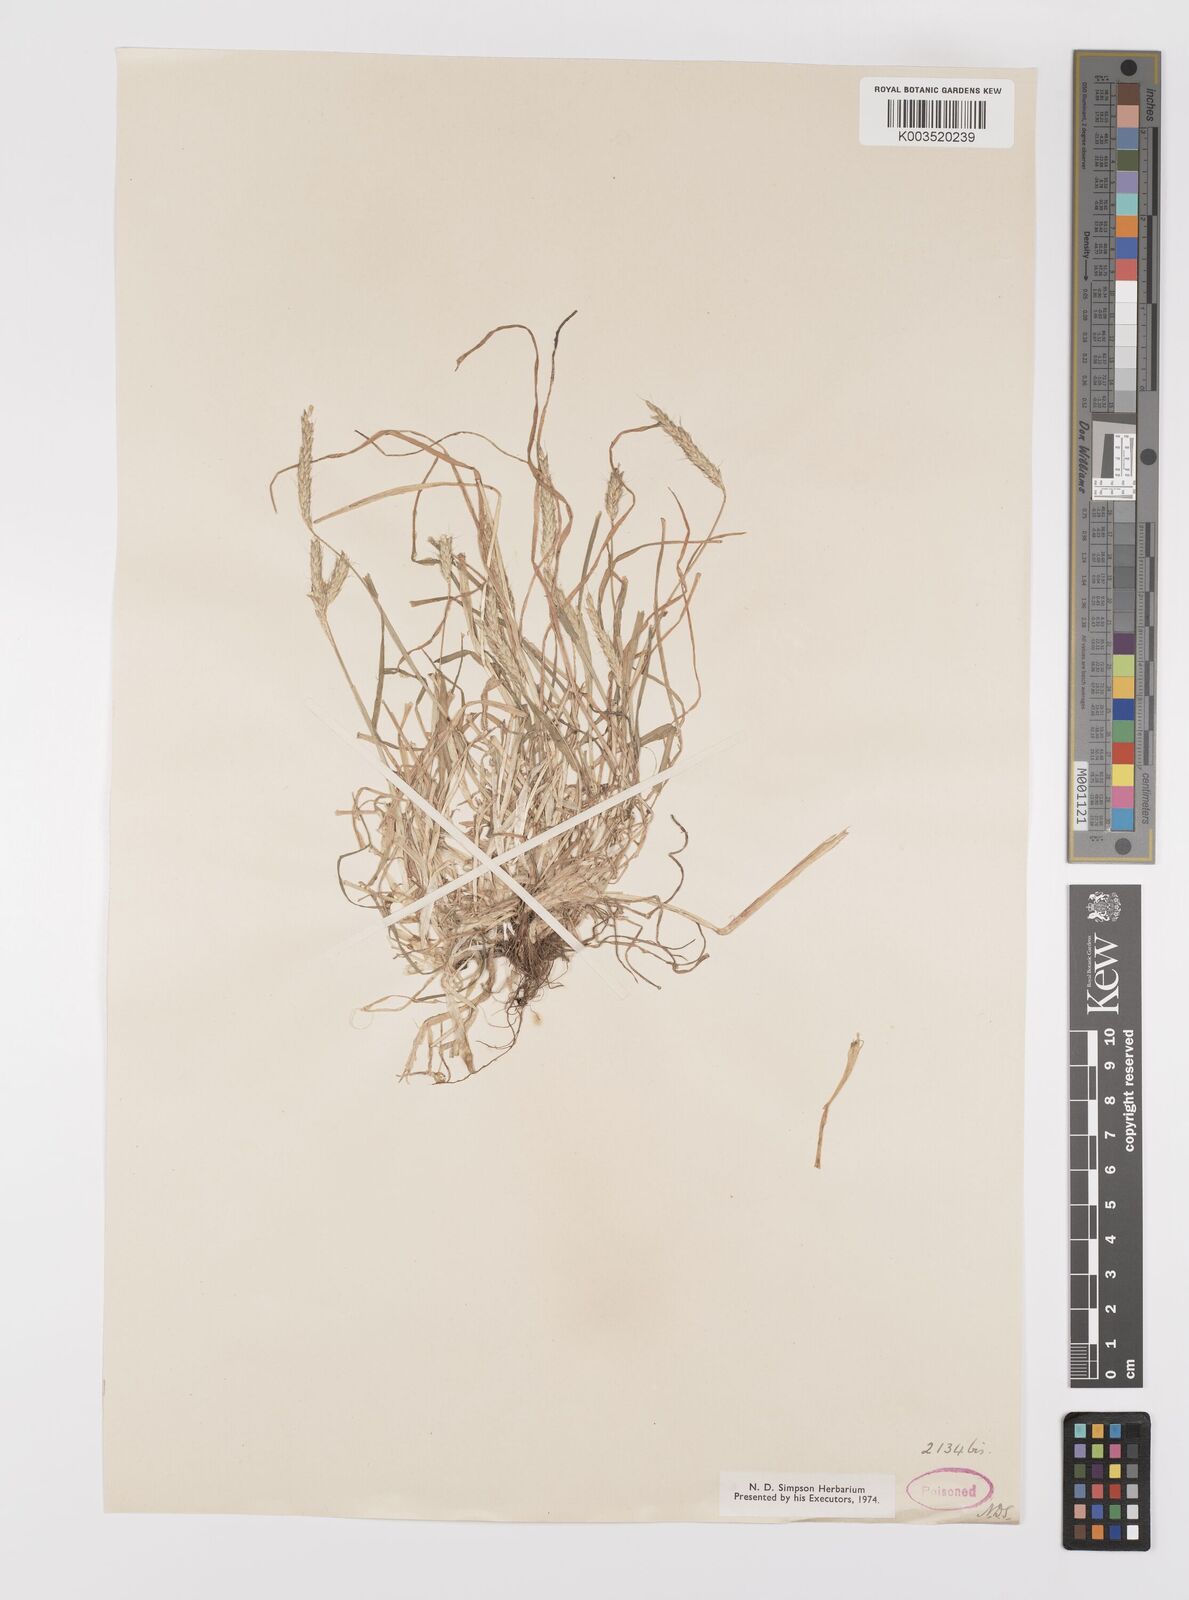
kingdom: Plantae
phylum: Tracheophyta
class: Liliopsida
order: Poales
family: Poaceae
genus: Alopecurus
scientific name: Alopecurus myosuroides
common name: Black-grass
